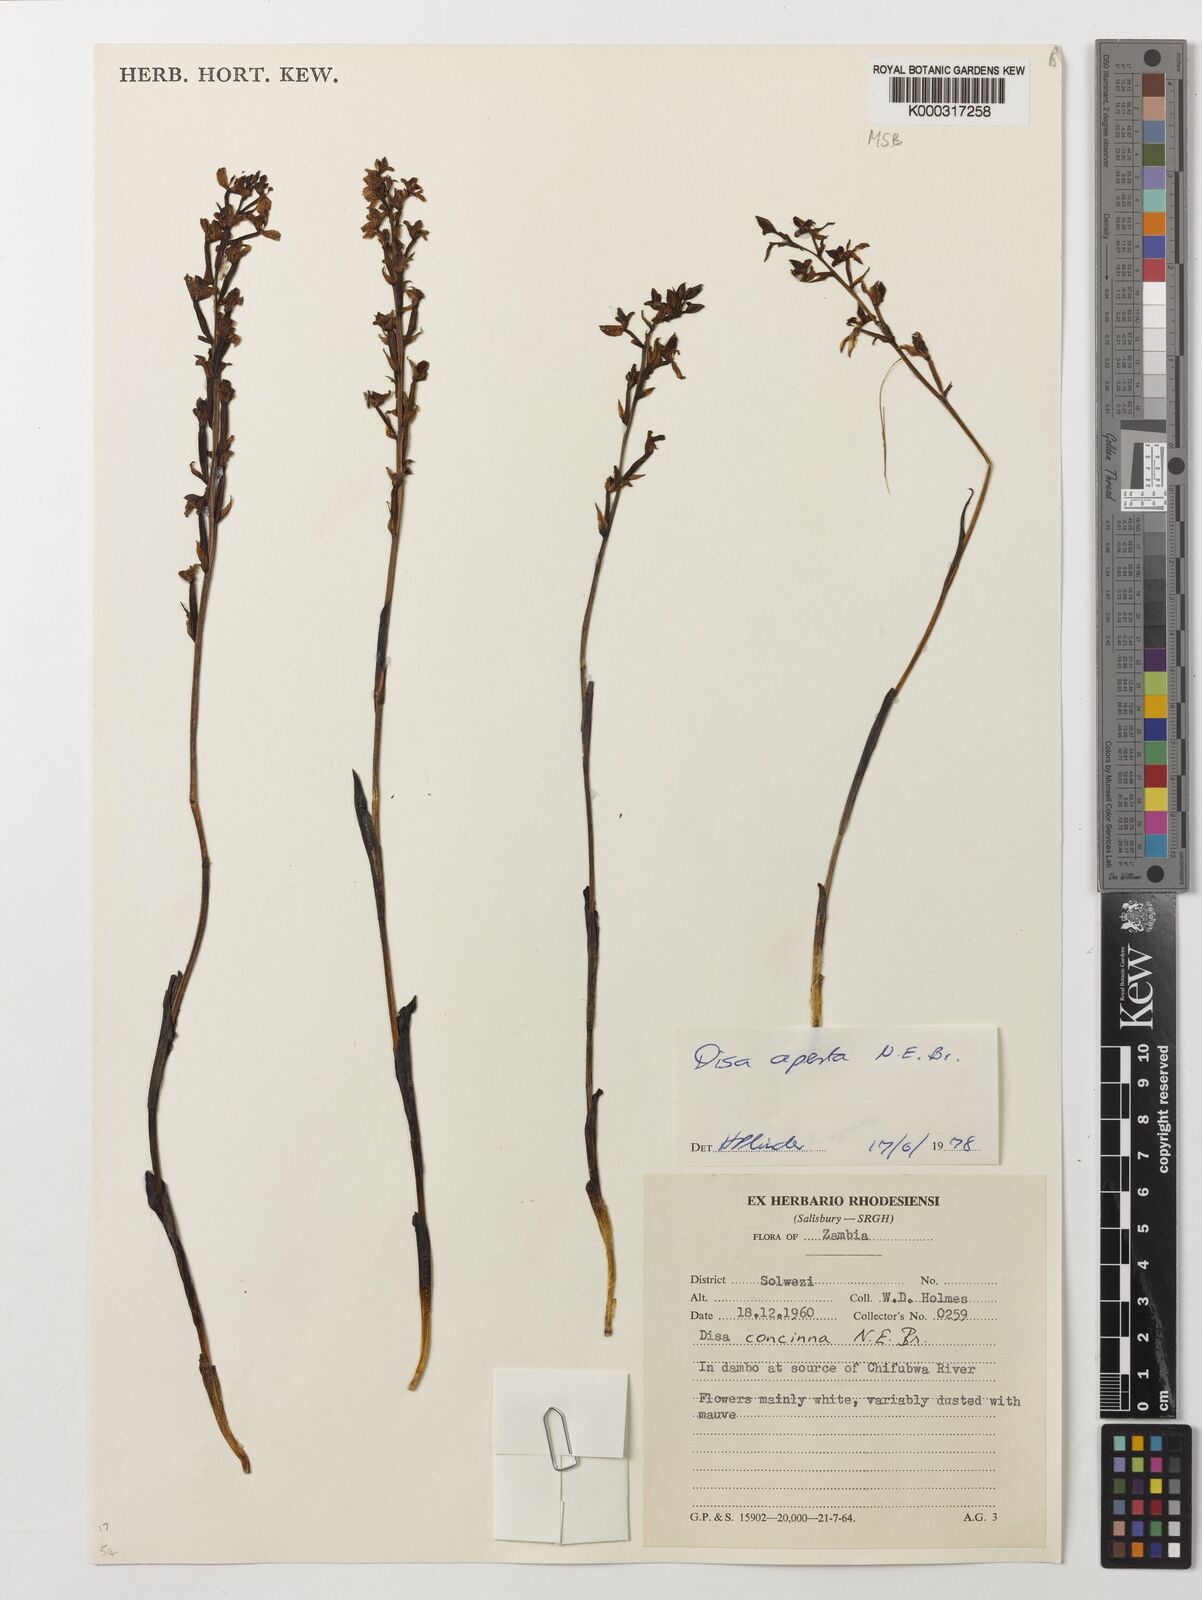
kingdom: Plantae
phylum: Tracheophyta
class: Liliopsida
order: Asparagales
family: Orchidaceae
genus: Disa
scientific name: Disa aperta
